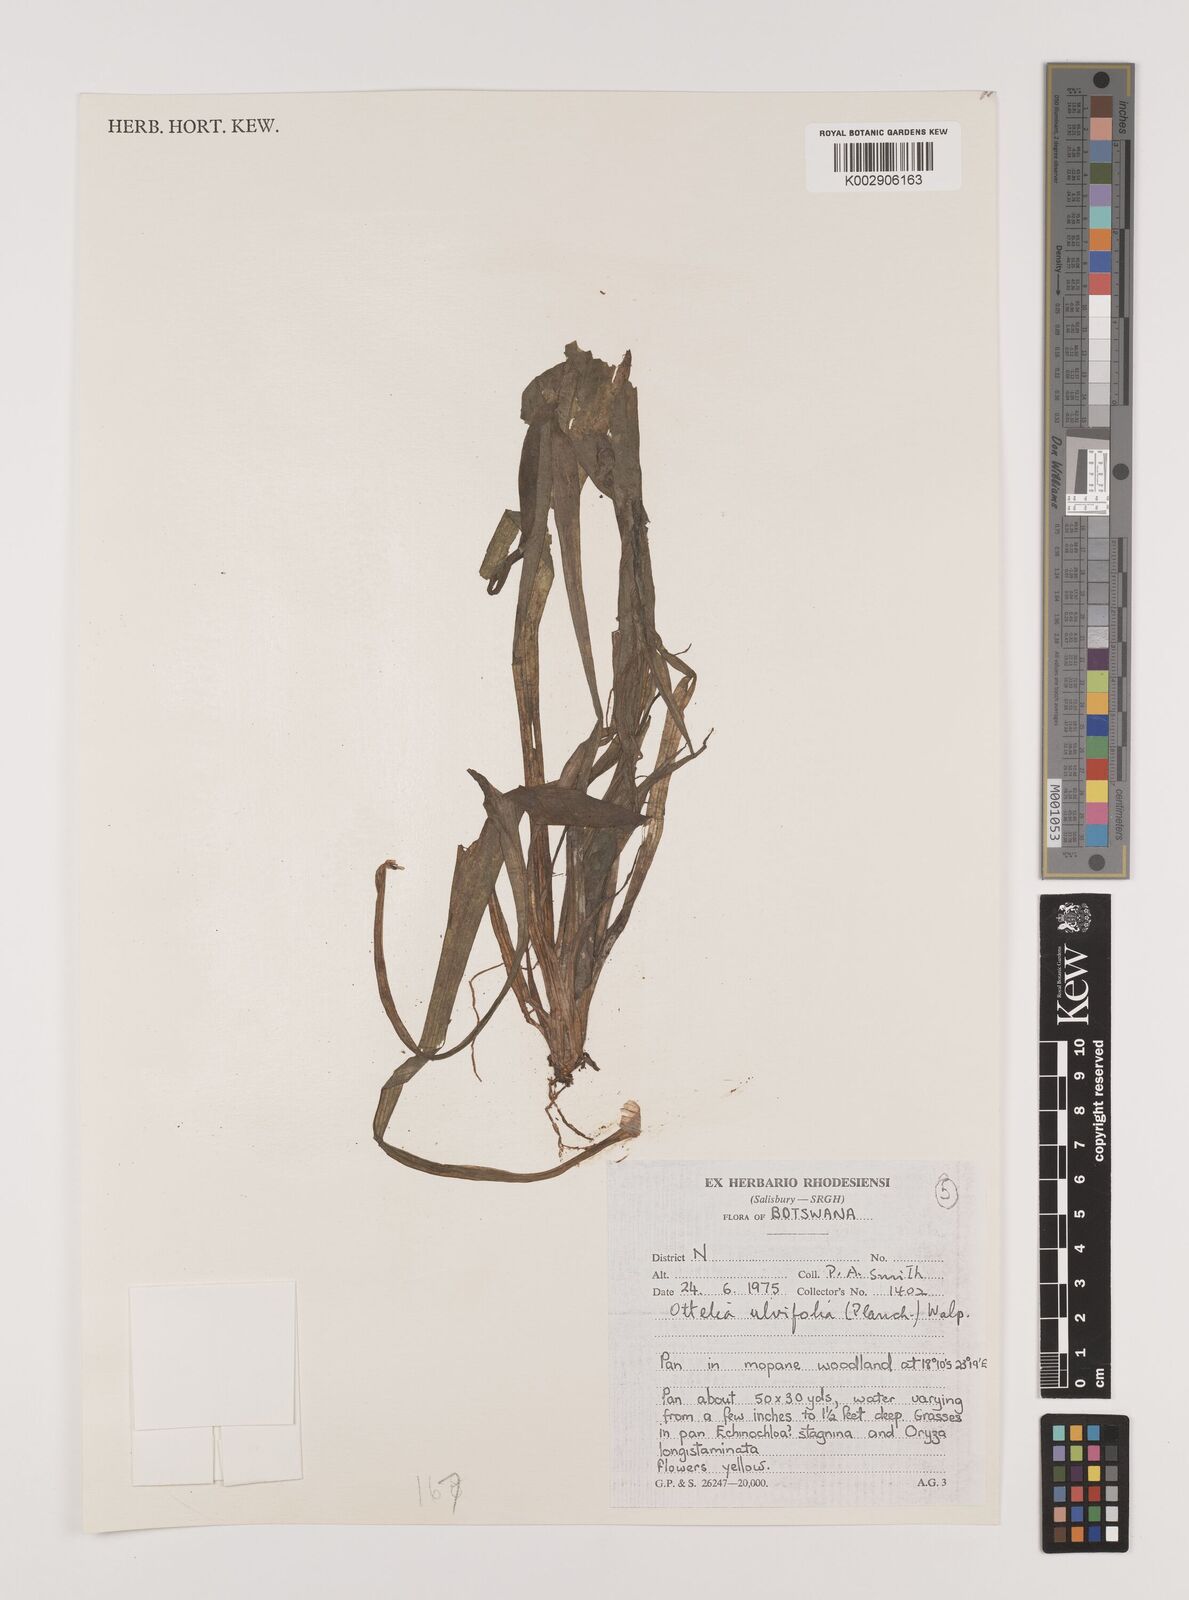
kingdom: Plantae
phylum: Tracheophyta
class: Liliopsida
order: Alismatales
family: Hydrocharitaceae
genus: Ottelia
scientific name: Ottelia ulvifolia
